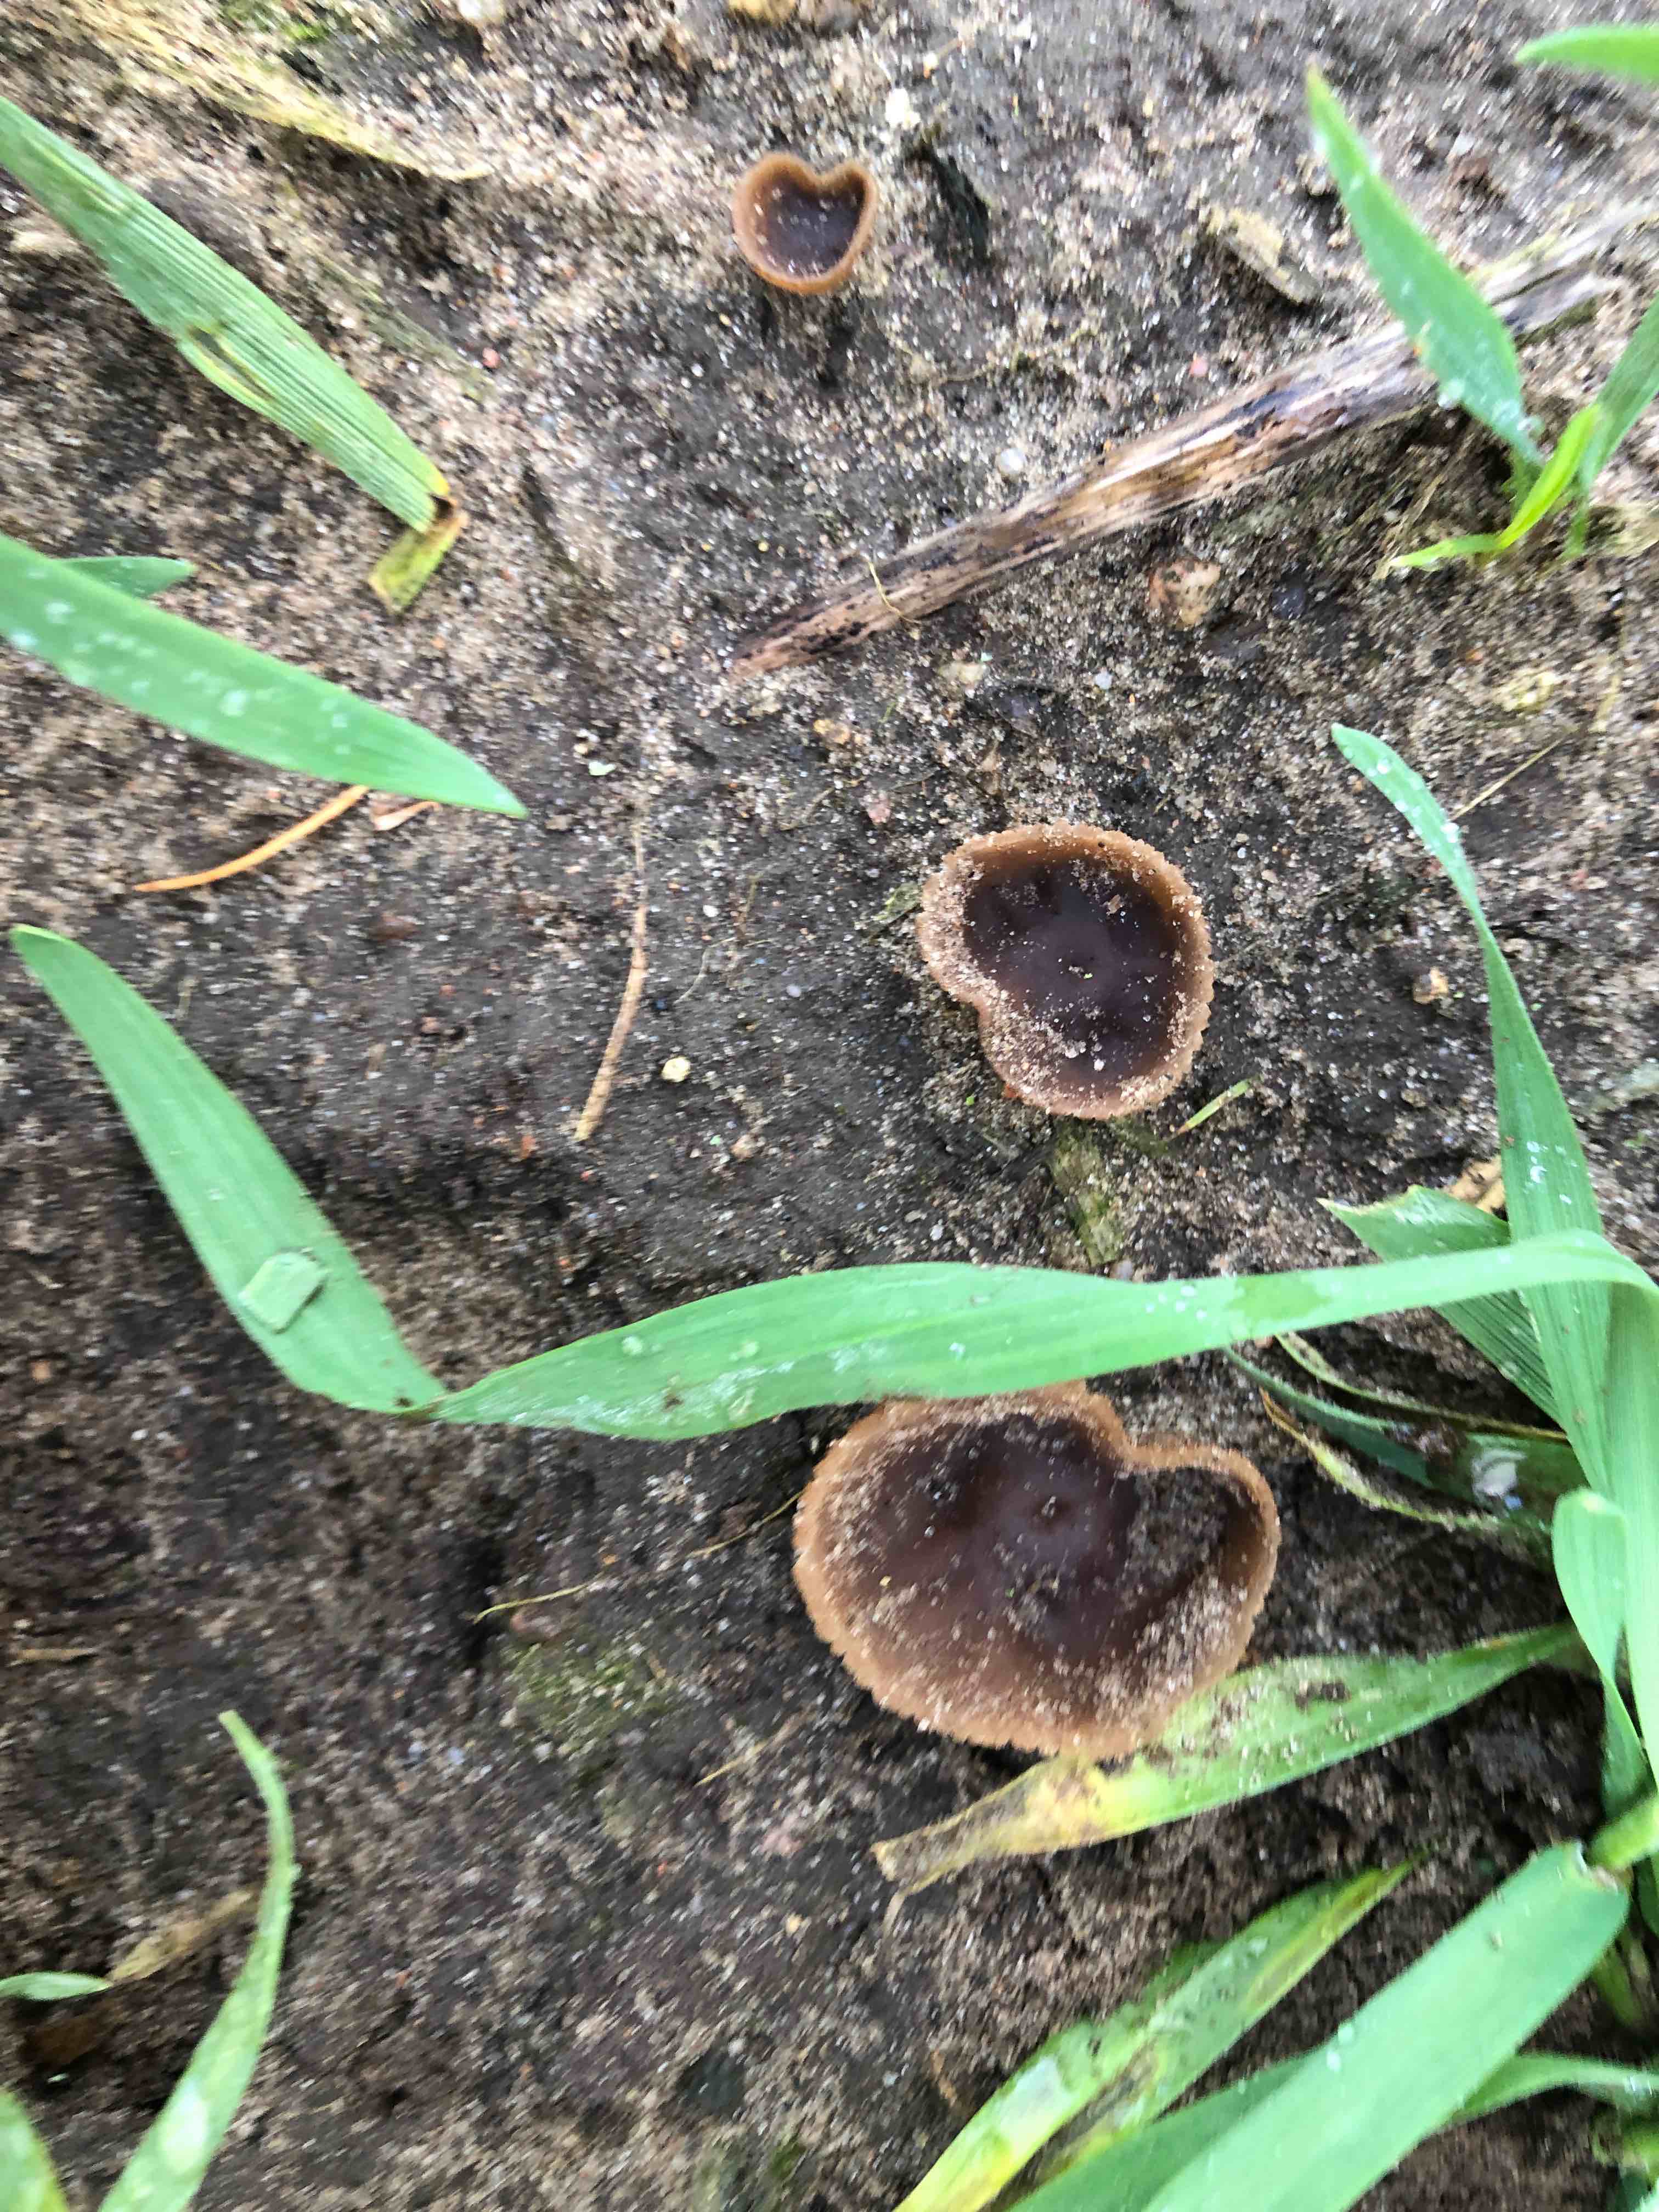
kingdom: Fungi
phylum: Ascomycota
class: Pezizomycetes
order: Pezizales
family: Pezizaceae
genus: Peziza
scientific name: Peziza fimeti
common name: møg-bægersvamp
